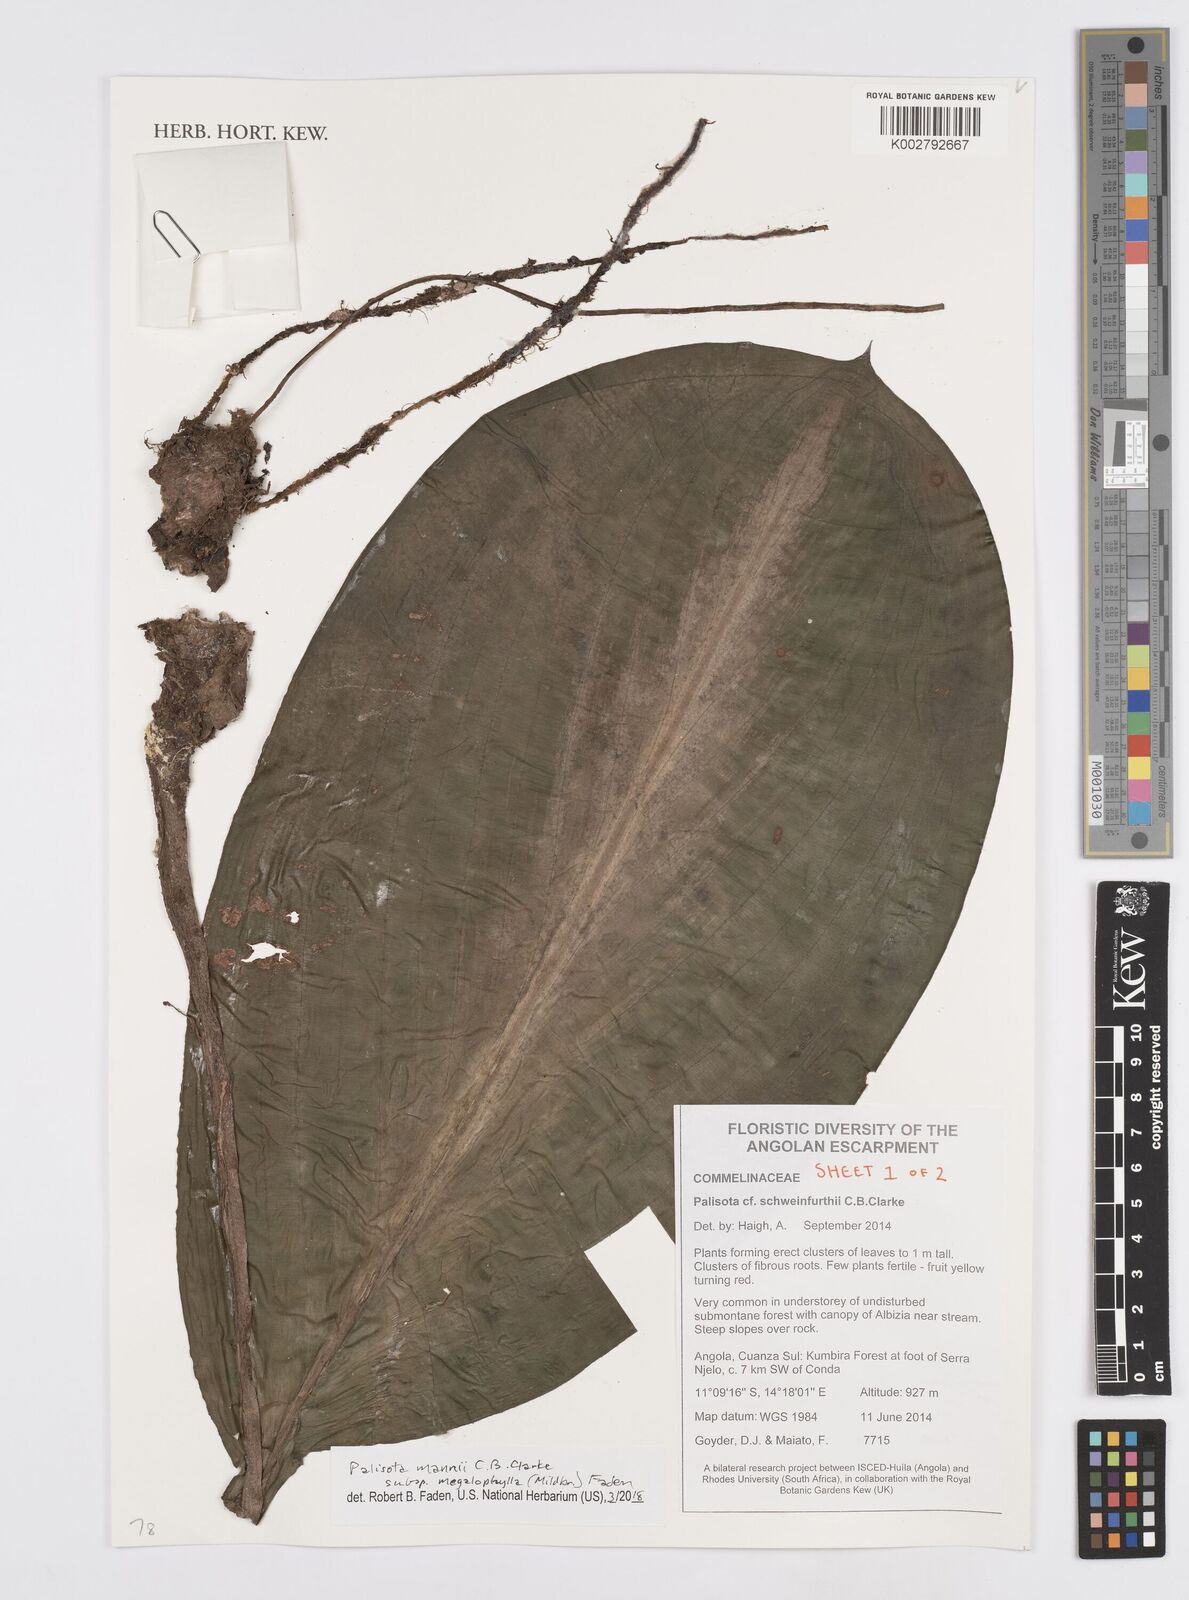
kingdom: Plantae
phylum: Tracheophyta
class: Liliopsida
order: Commelinales
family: Commelinaceae
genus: Palisota
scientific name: Palisota mannii
